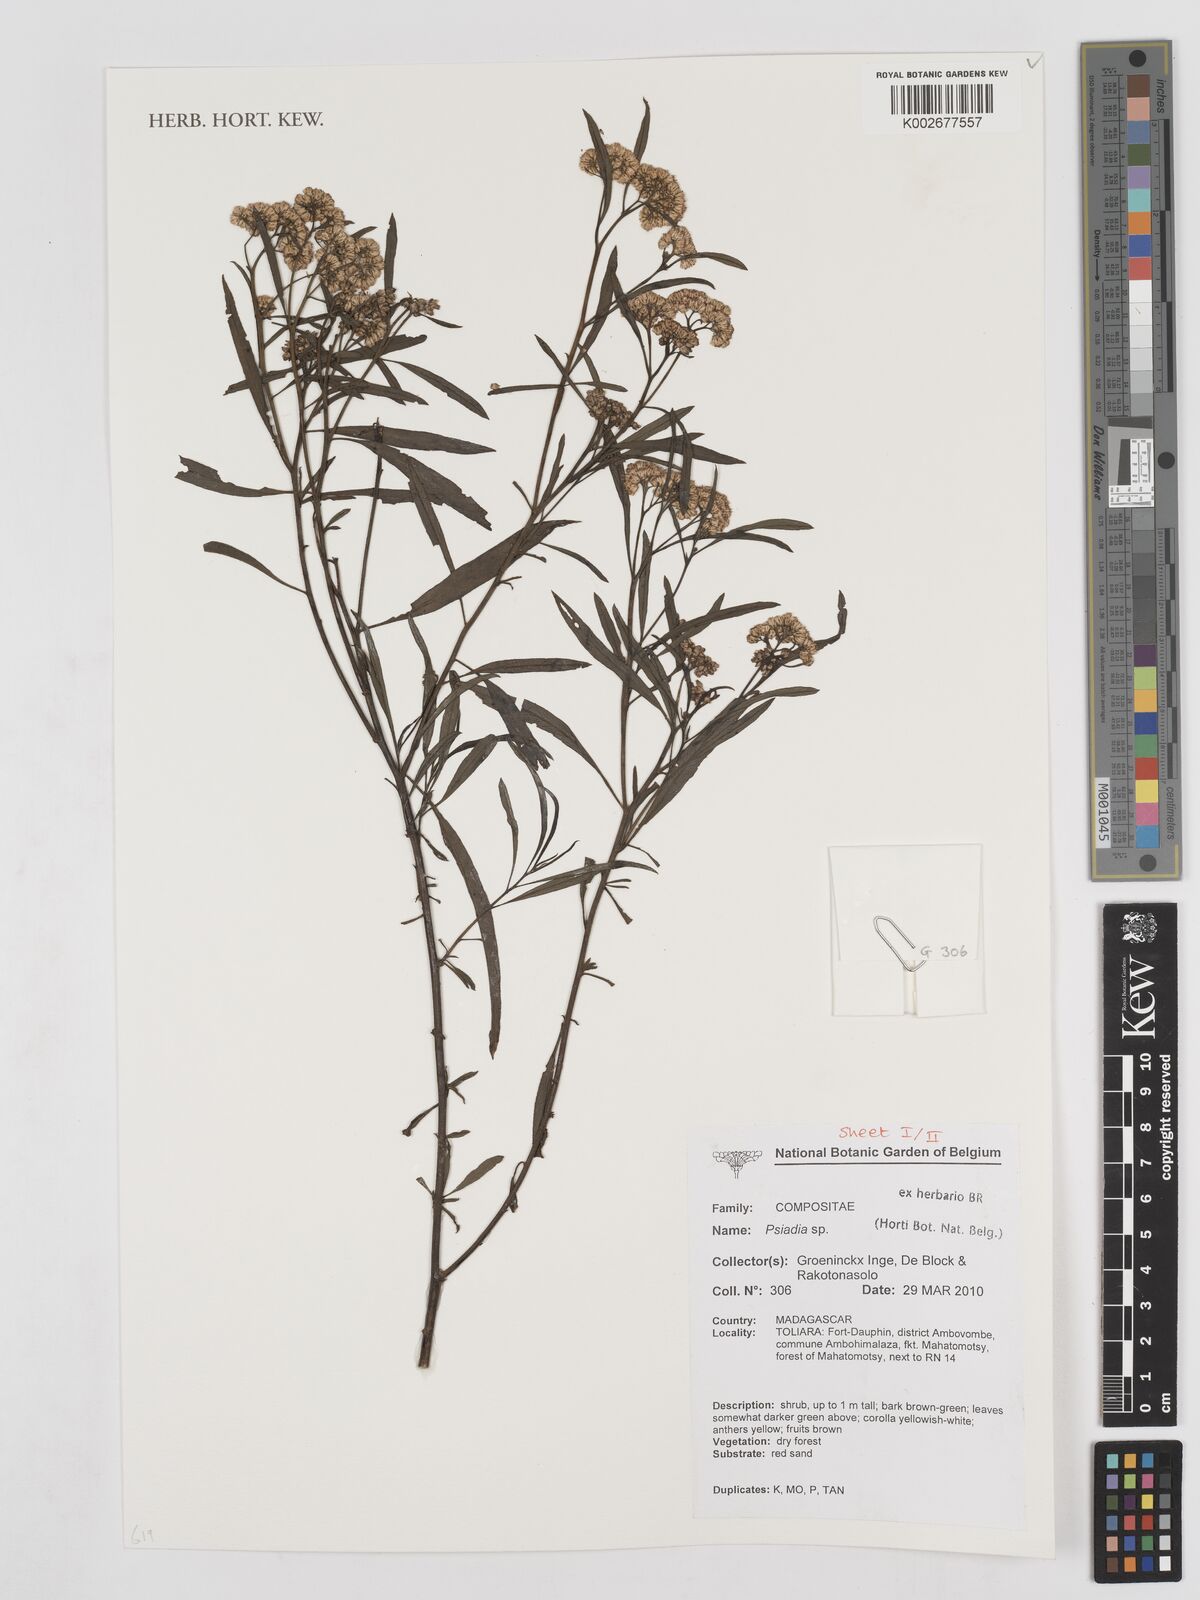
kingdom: Plantae
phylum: Tracheophyta
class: Magnoliopsida
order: Asterales
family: Asteraceae
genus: Psiadia
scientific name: Psiadia
